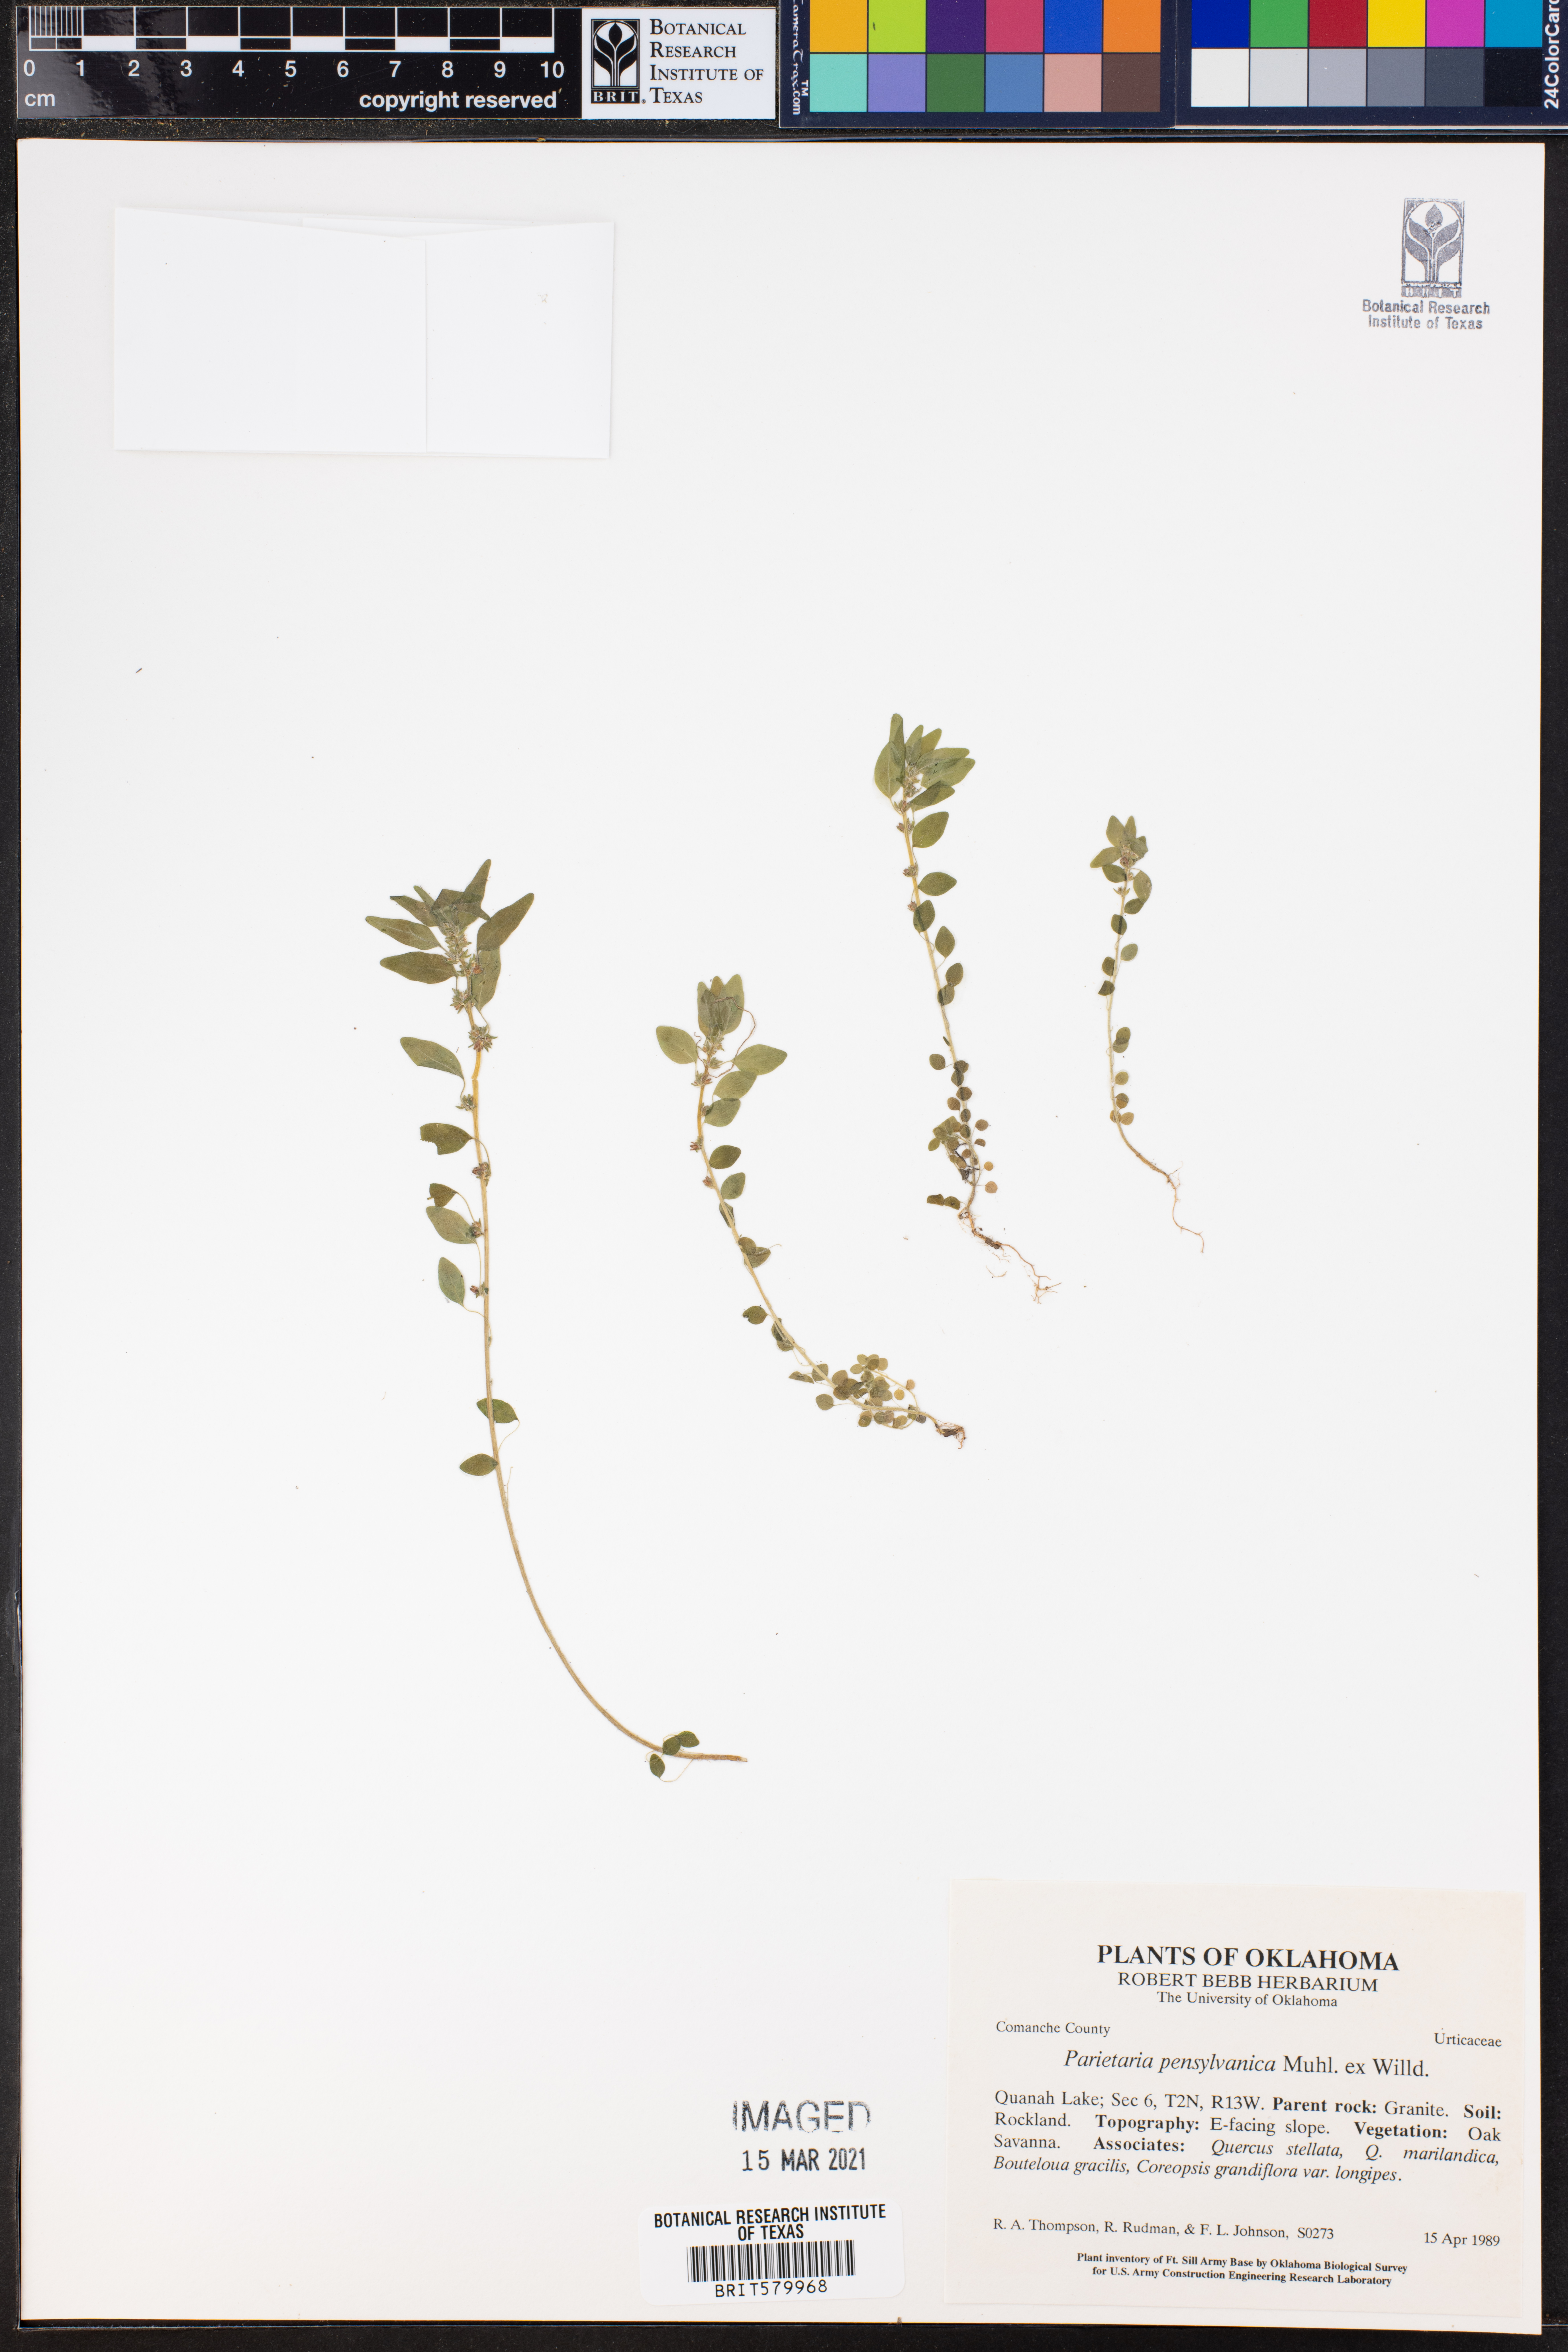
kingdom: Plantae
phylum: Tracheophyta
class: Magnoliopsida
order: Rosales
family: Urticaceae
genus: Parietaria
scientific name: Parietaria pensylvanica
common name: Pennsylvania pellitory
